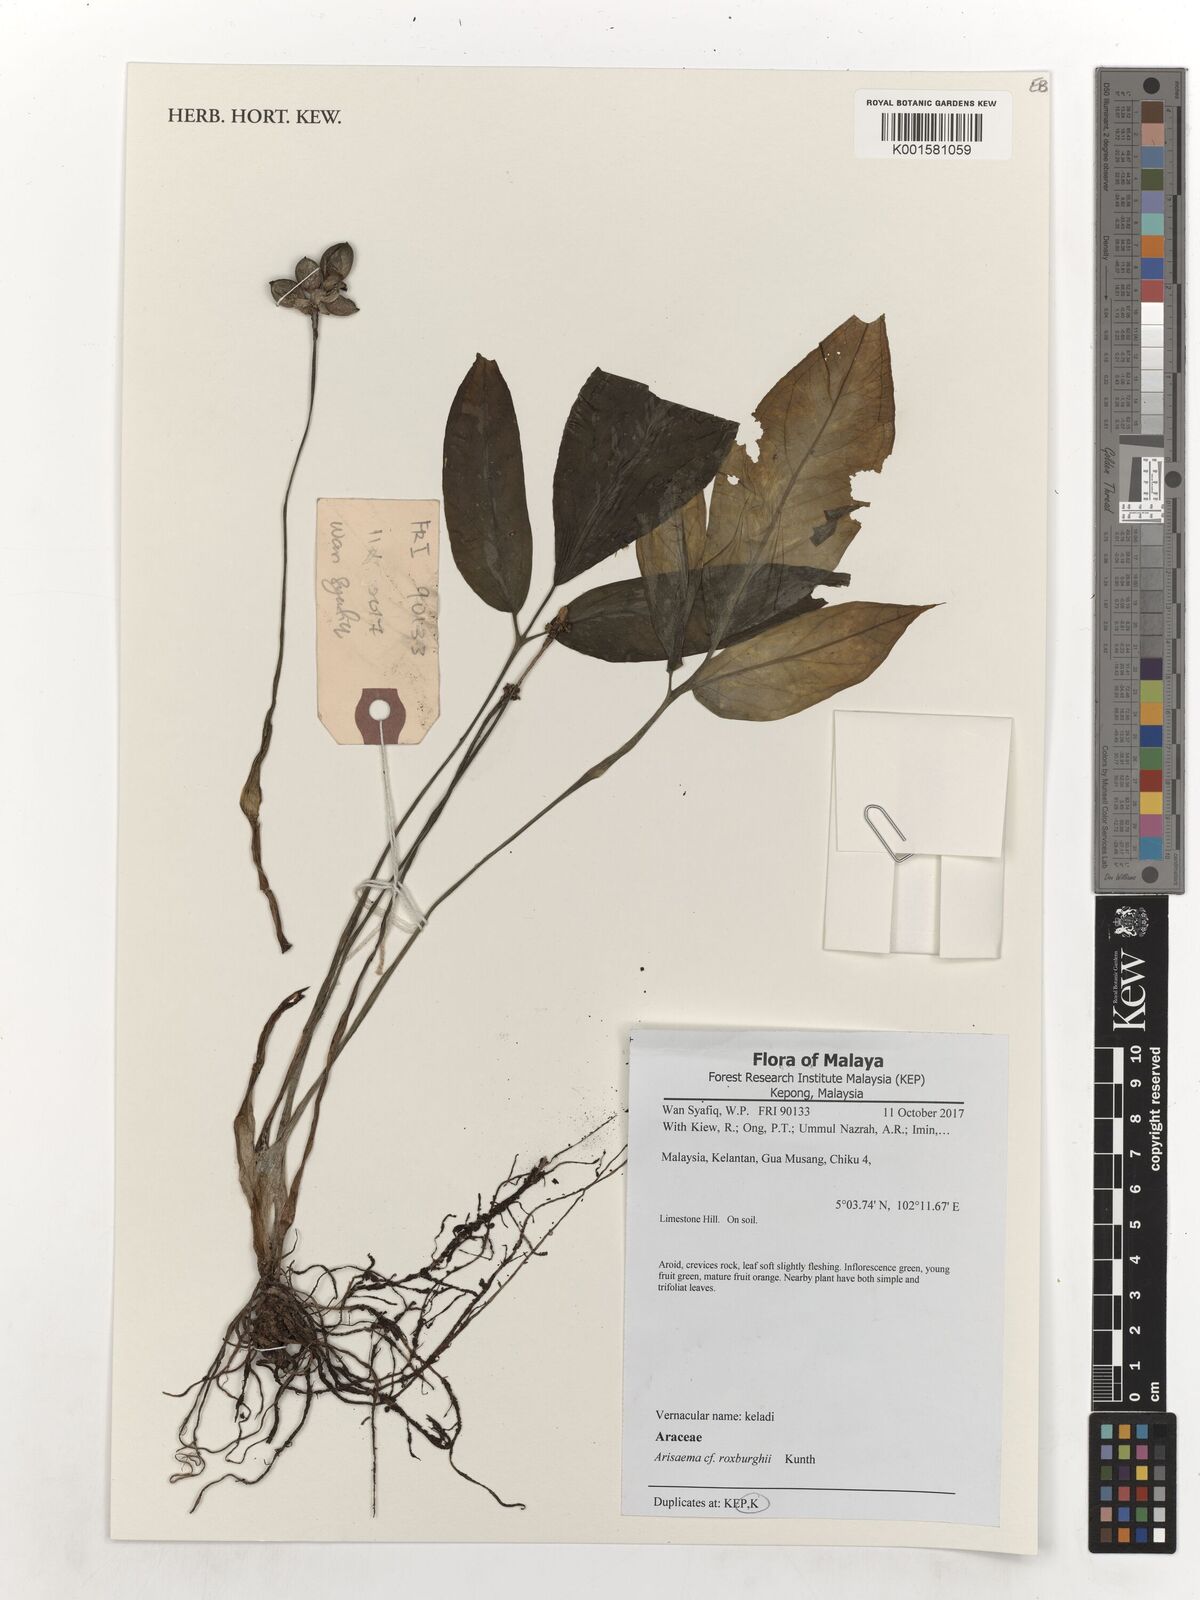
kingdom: Plantae
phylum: Tracheophyta
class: Liliopsida
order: Alismatales
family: Araceae
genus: Arisaema
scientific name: Arisaema roxburghii
